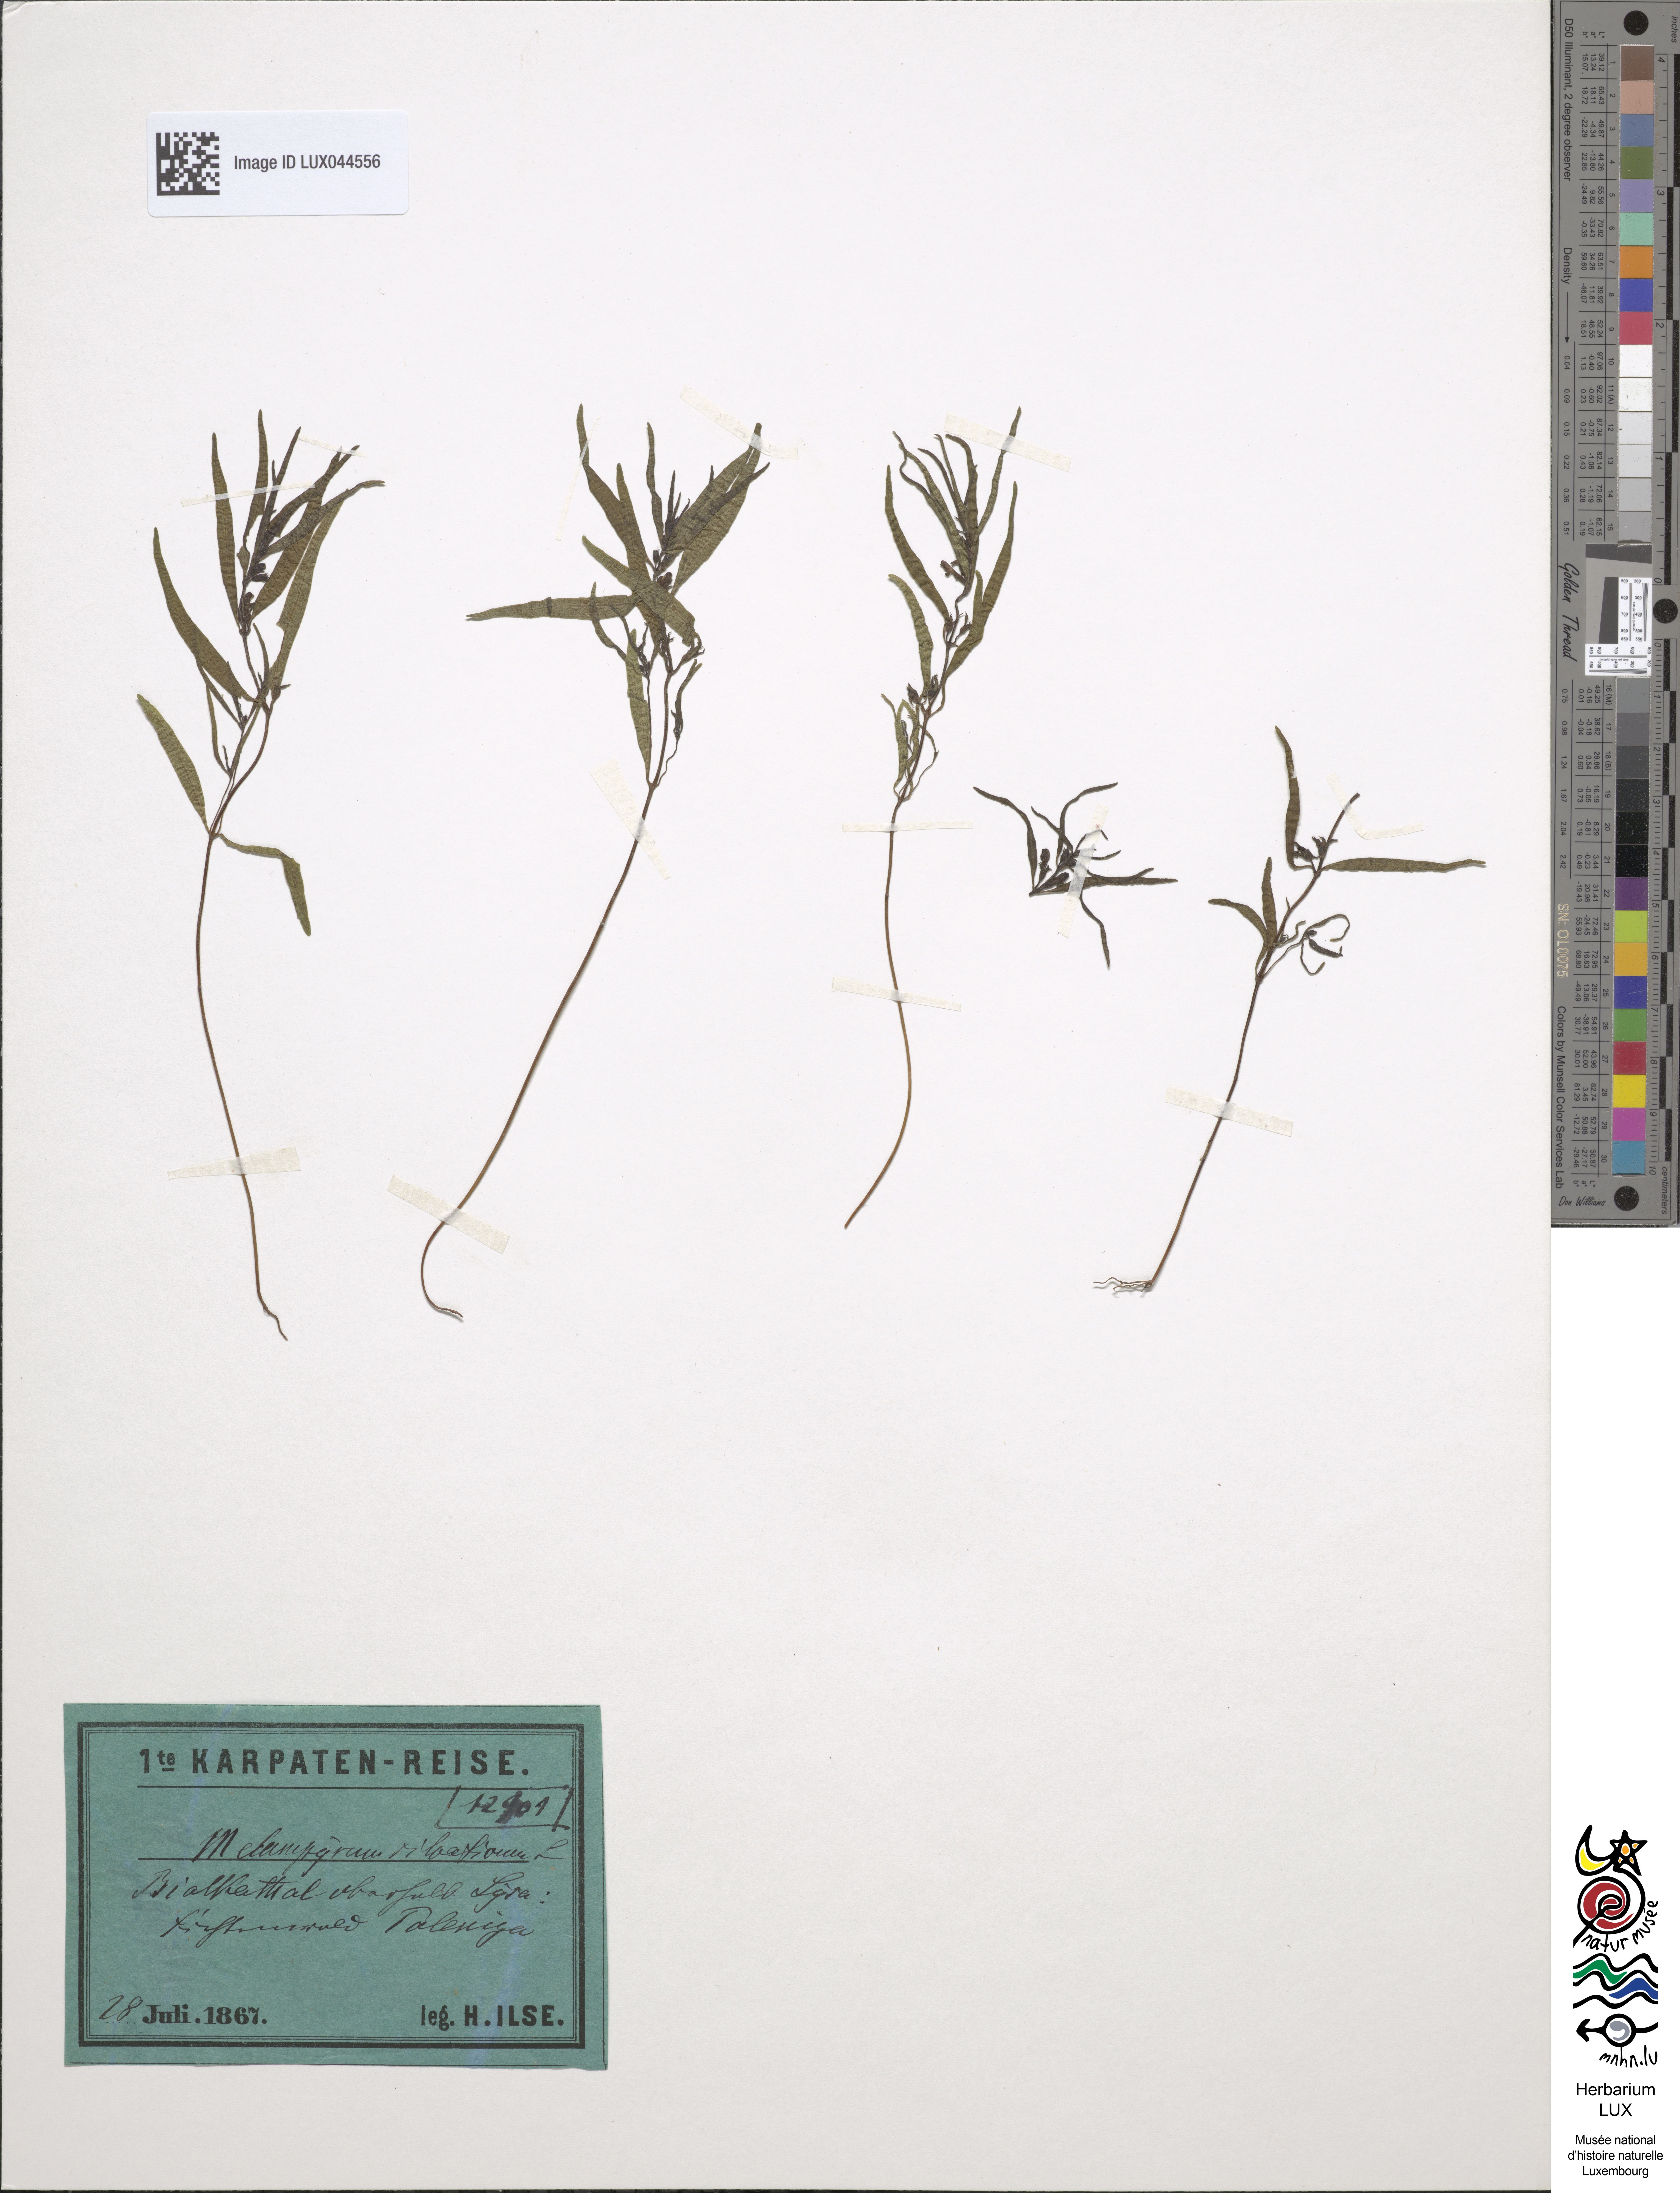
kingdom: Plantae
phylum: Tracheophyta
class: Magnoliopsida
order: Lamiales
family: Orobanchaceae
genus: Melampyrum
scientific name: Melampyrum sylvaticum
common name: Small cow-wheat
